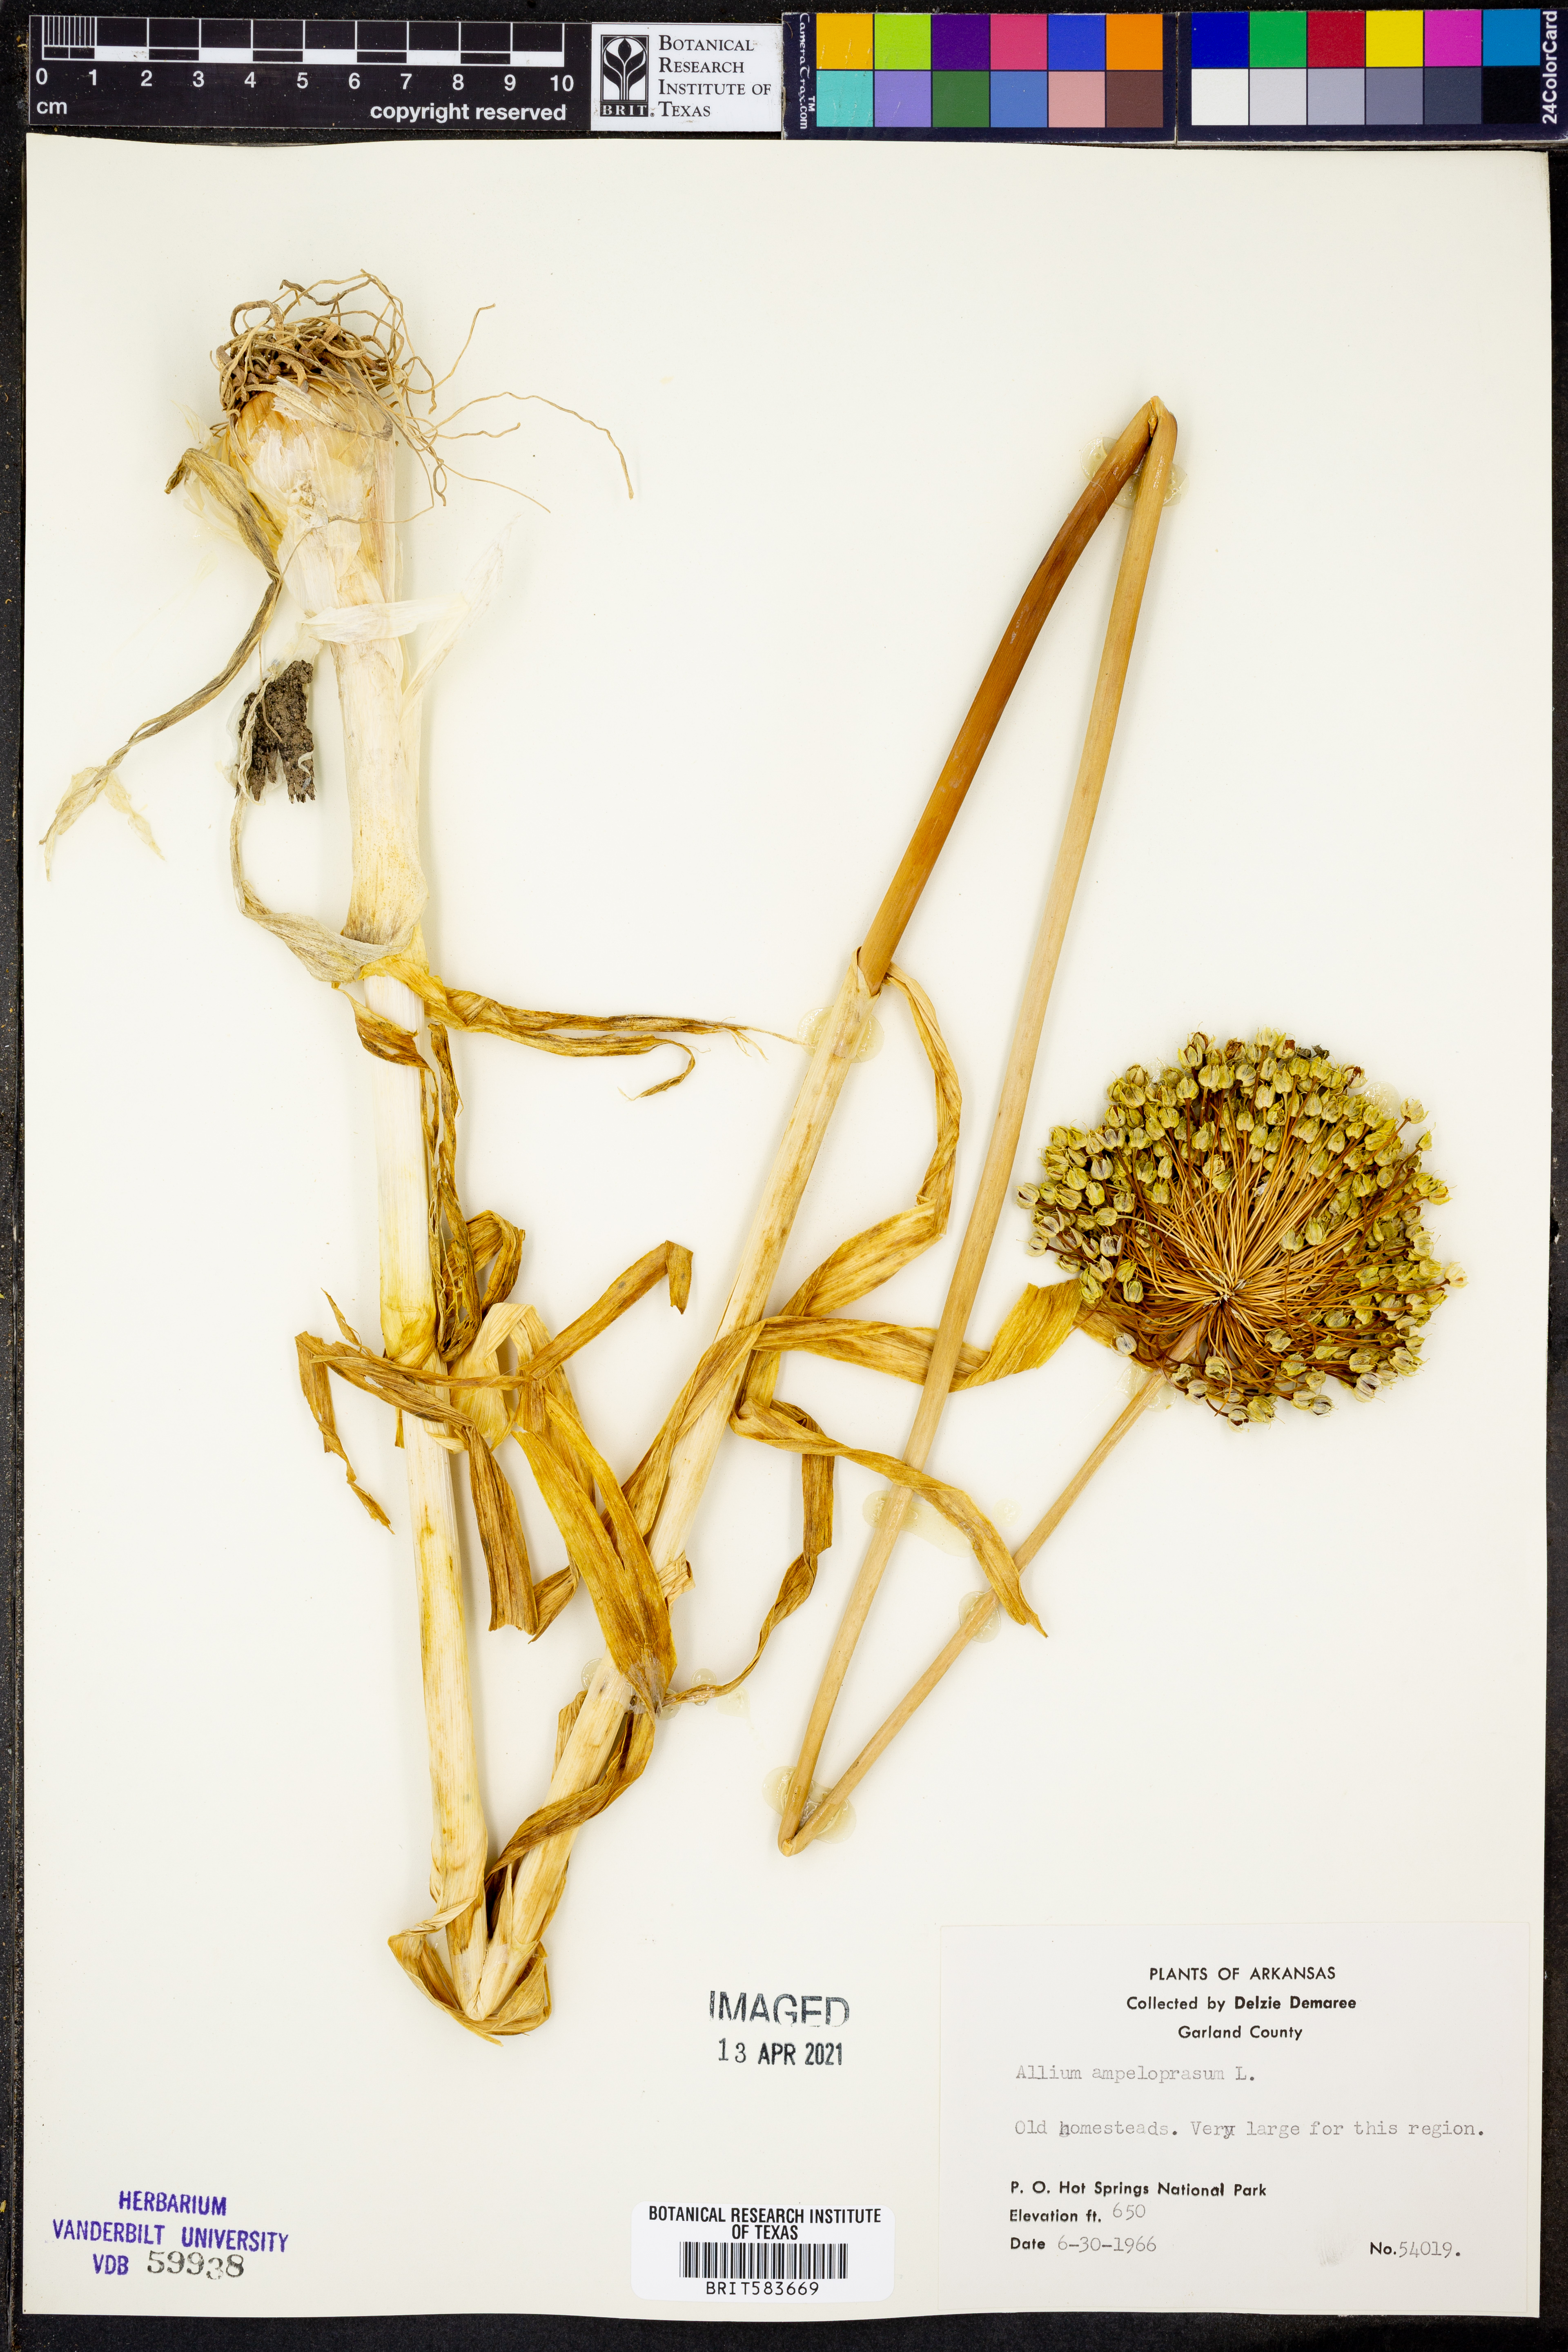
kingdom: Plantae
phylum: Tracheophyta
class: Liliopsida
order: Asparagales
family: Amaryllidaceae
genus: Allium
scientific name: Allium ampeloprasum
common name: Wild leek
